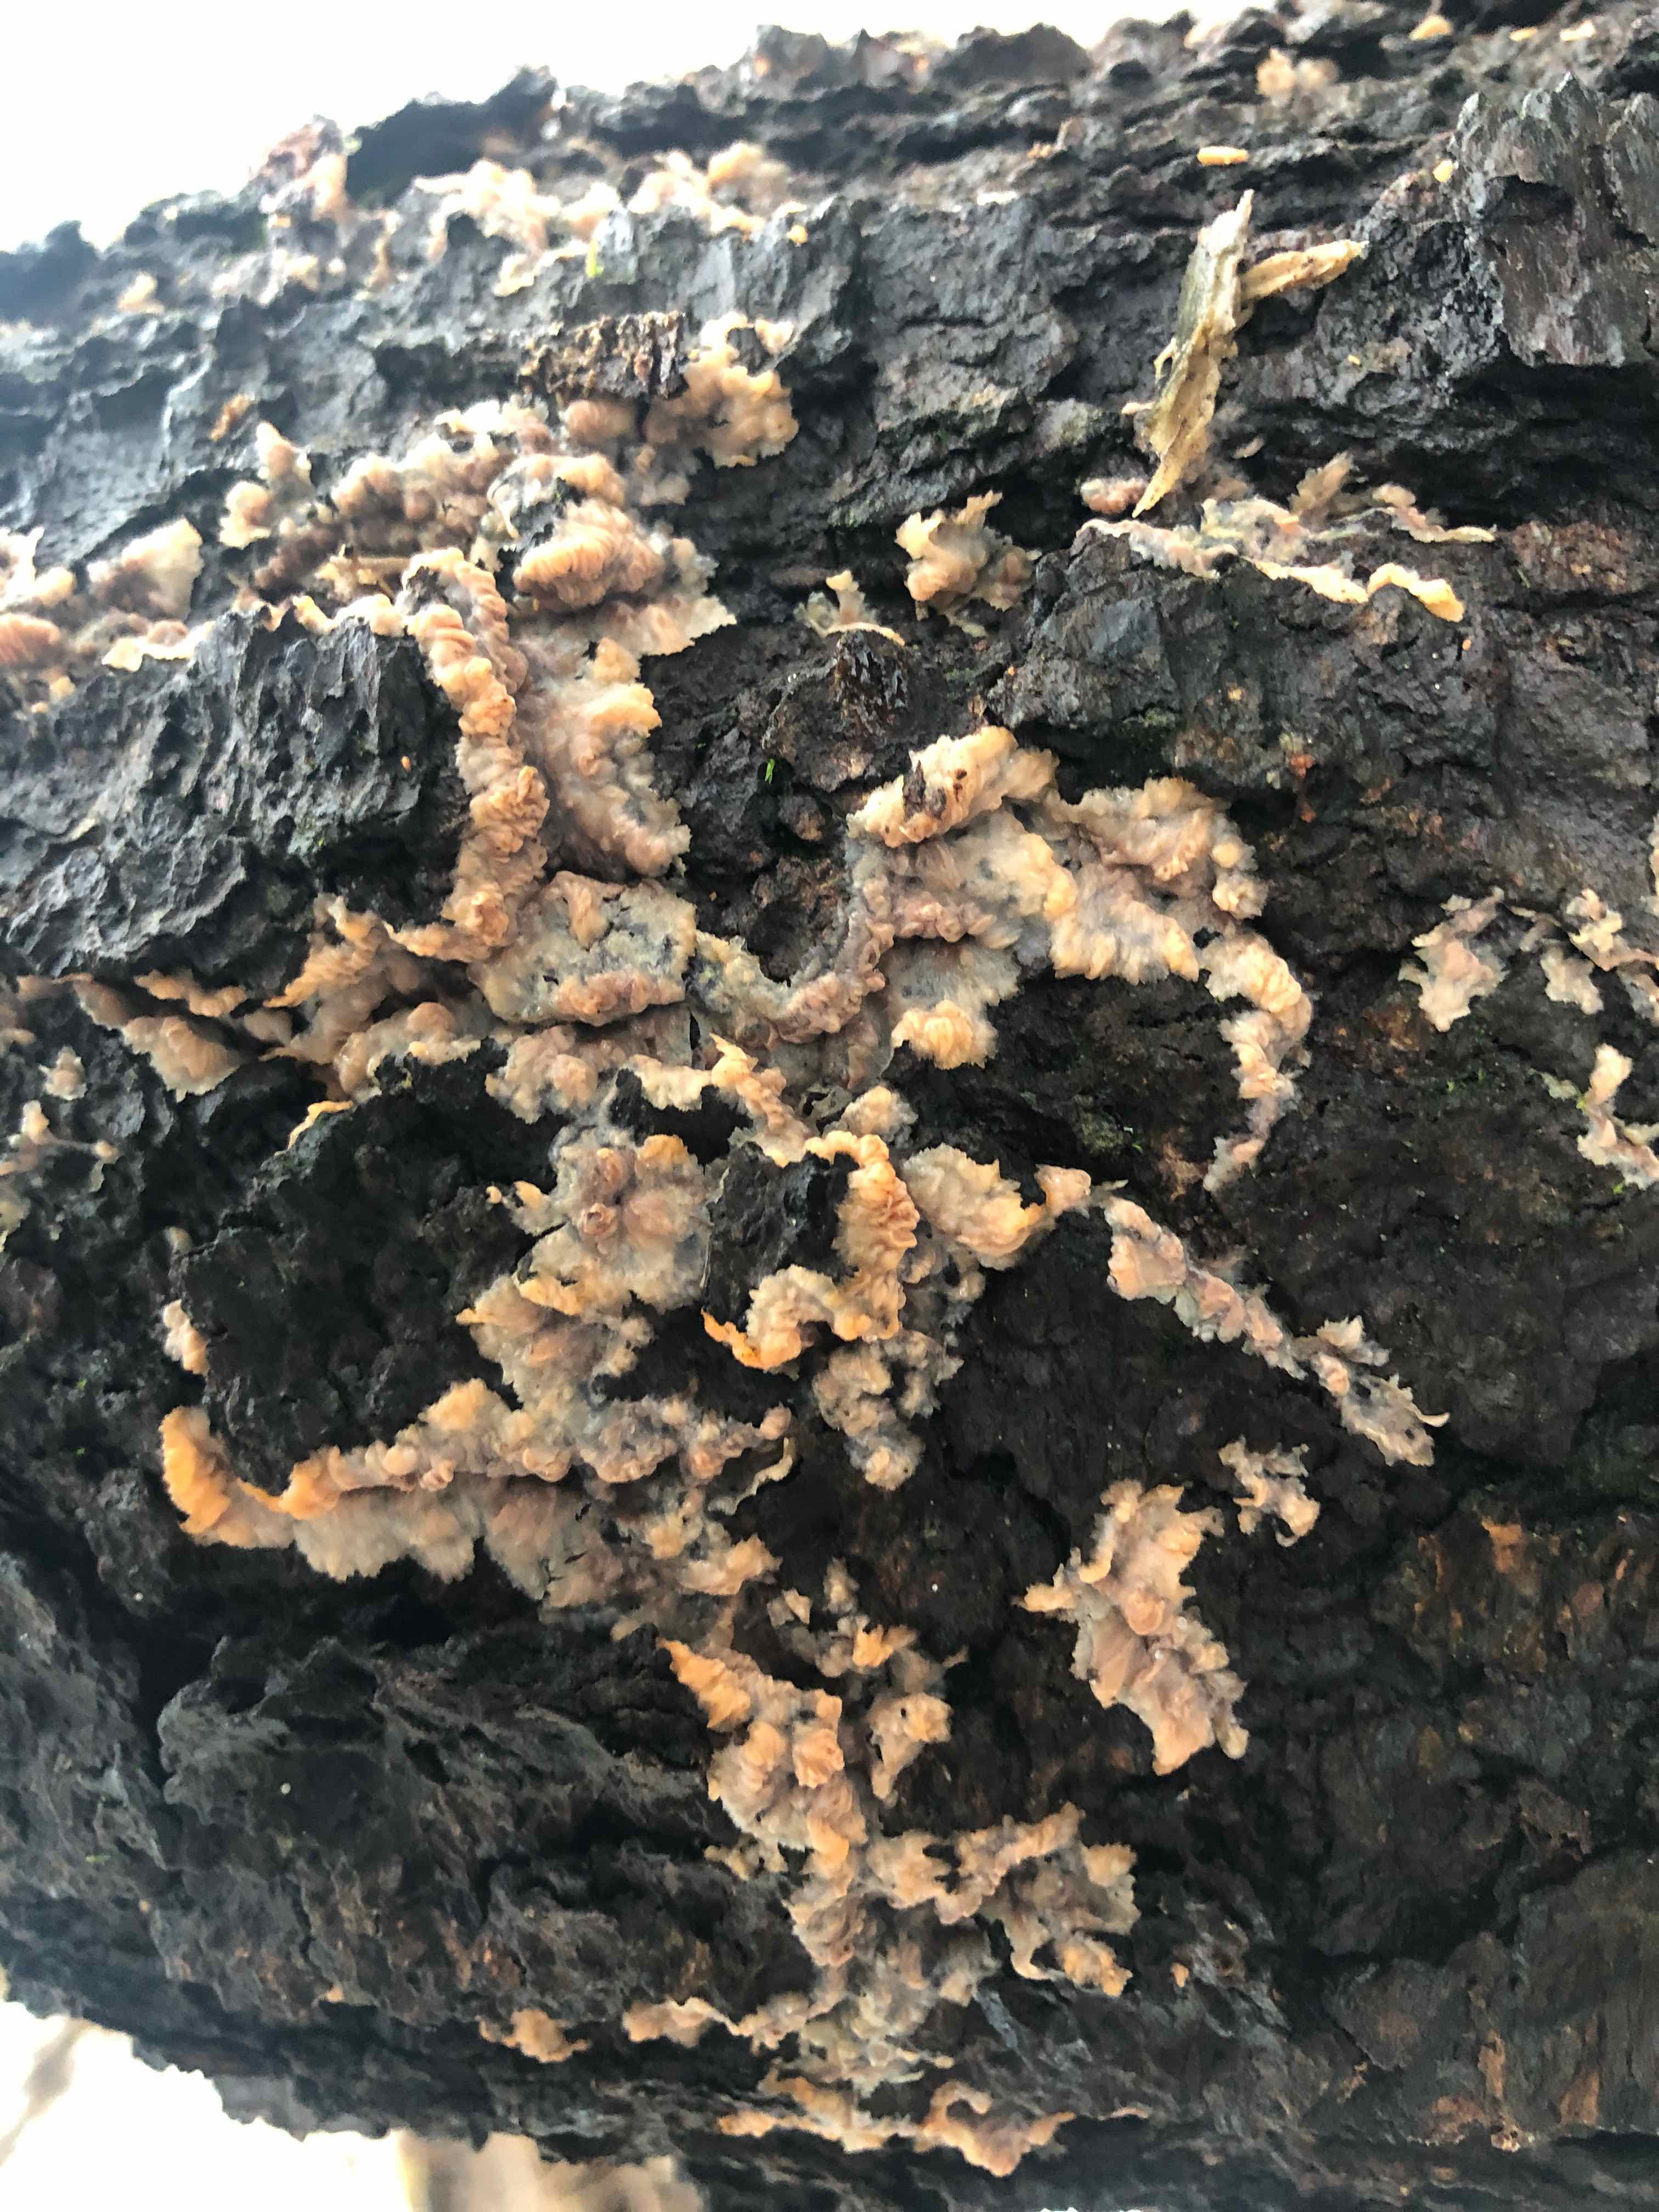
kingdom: Fungi
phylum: Basidiomycota
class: Agaricomycetes
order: Polyporales
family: Meruliaceae
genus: Phlebia
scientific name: Phlebia radiata
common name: stråle-åresvamp
